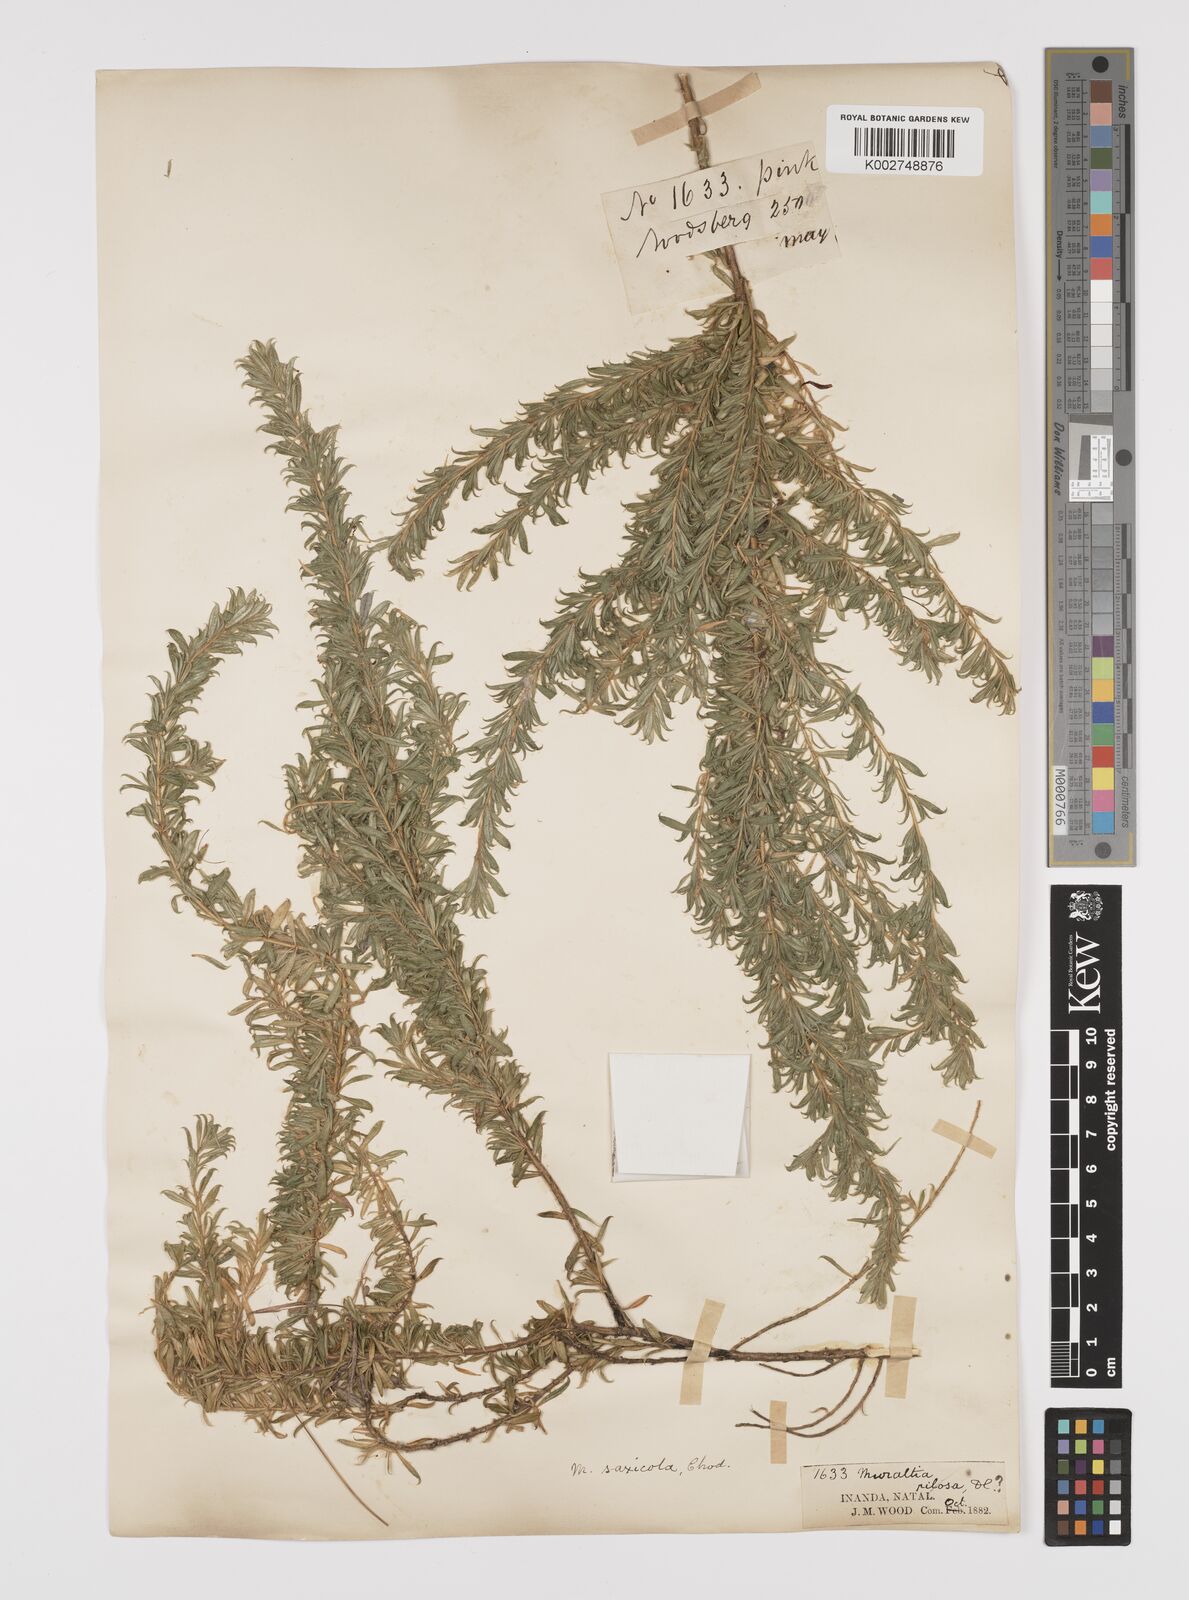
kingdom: Plantae
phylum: Tracheophyta
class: Magnoliopsida
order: Fabales
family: Polygalaceae
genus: Muraltia
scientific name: Muraltia saxicola
